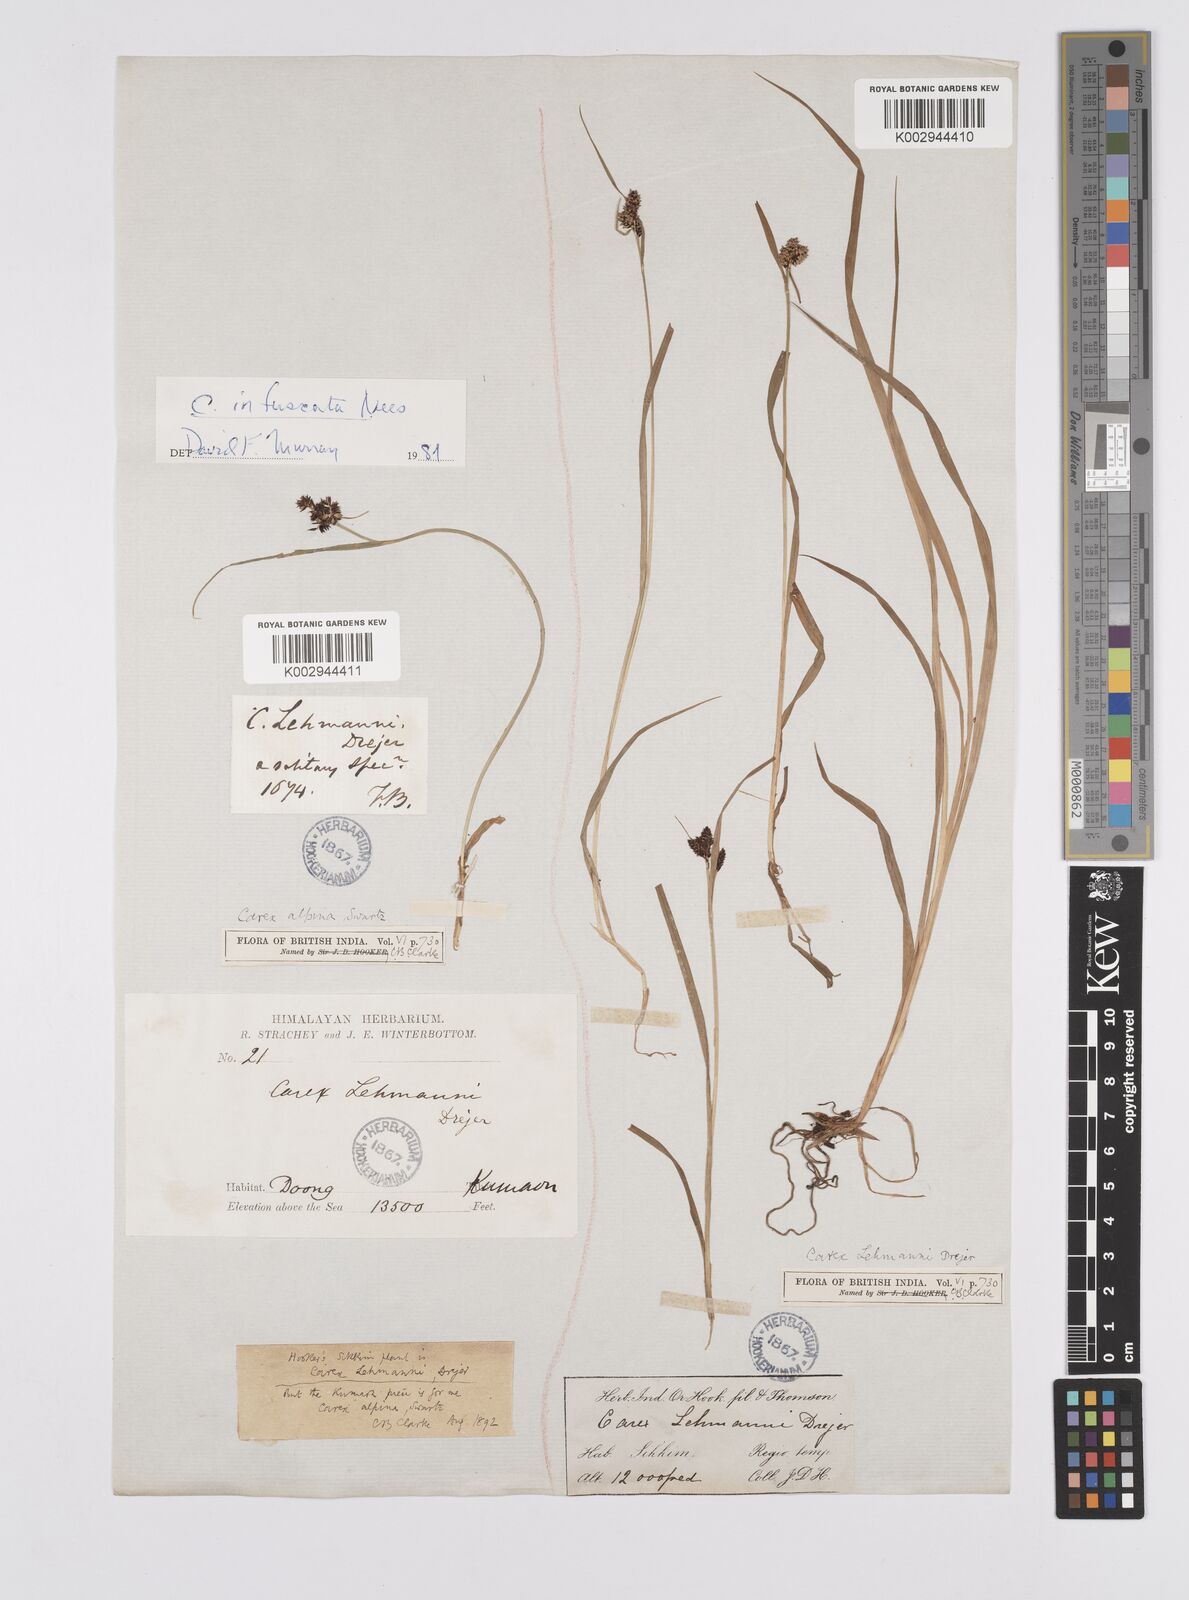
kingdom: Plantae
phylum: Tracheophyta
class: Liliopsida
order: Poales
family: Cyperaceae
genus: Carex
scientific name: Carex lehmannii
